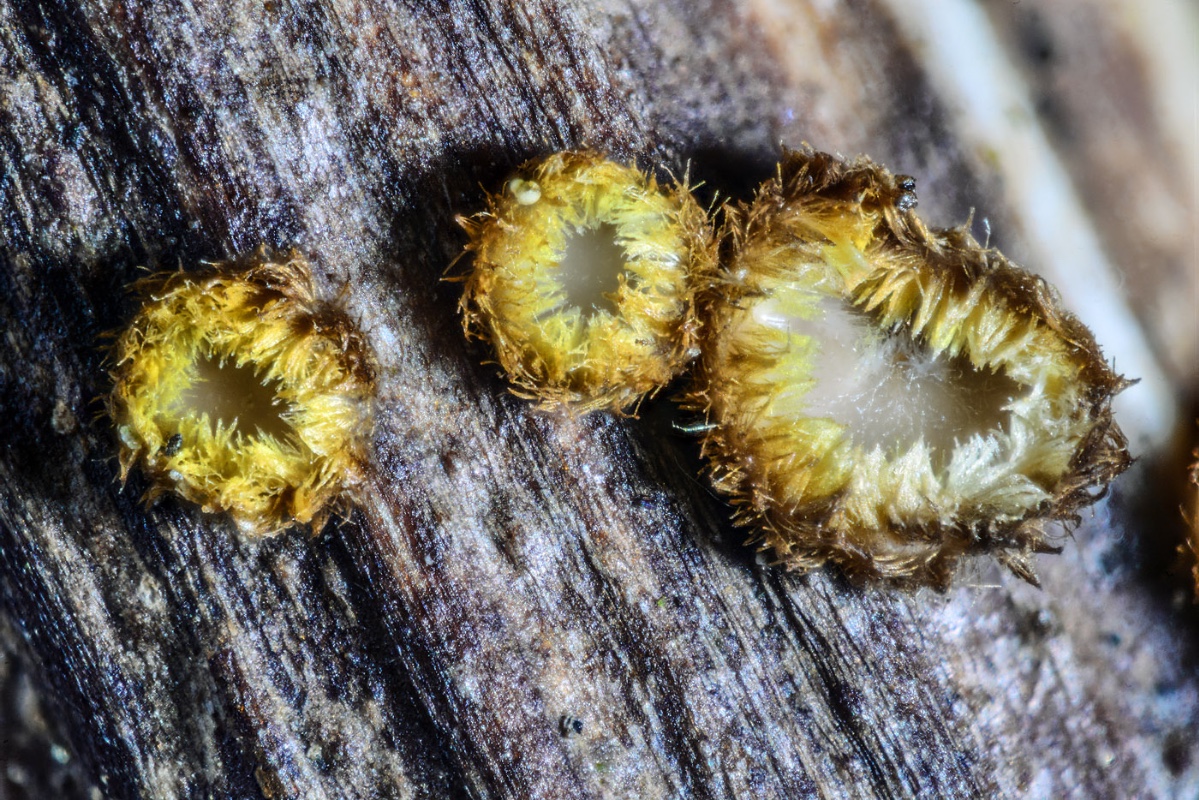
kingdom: Fungi
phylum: Ascomycota
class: Leotiomycetes
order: Helotiales
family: Lachnaceae
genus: Lachnum
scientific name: Lachnum mollissimum
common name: smuk frynseskive
